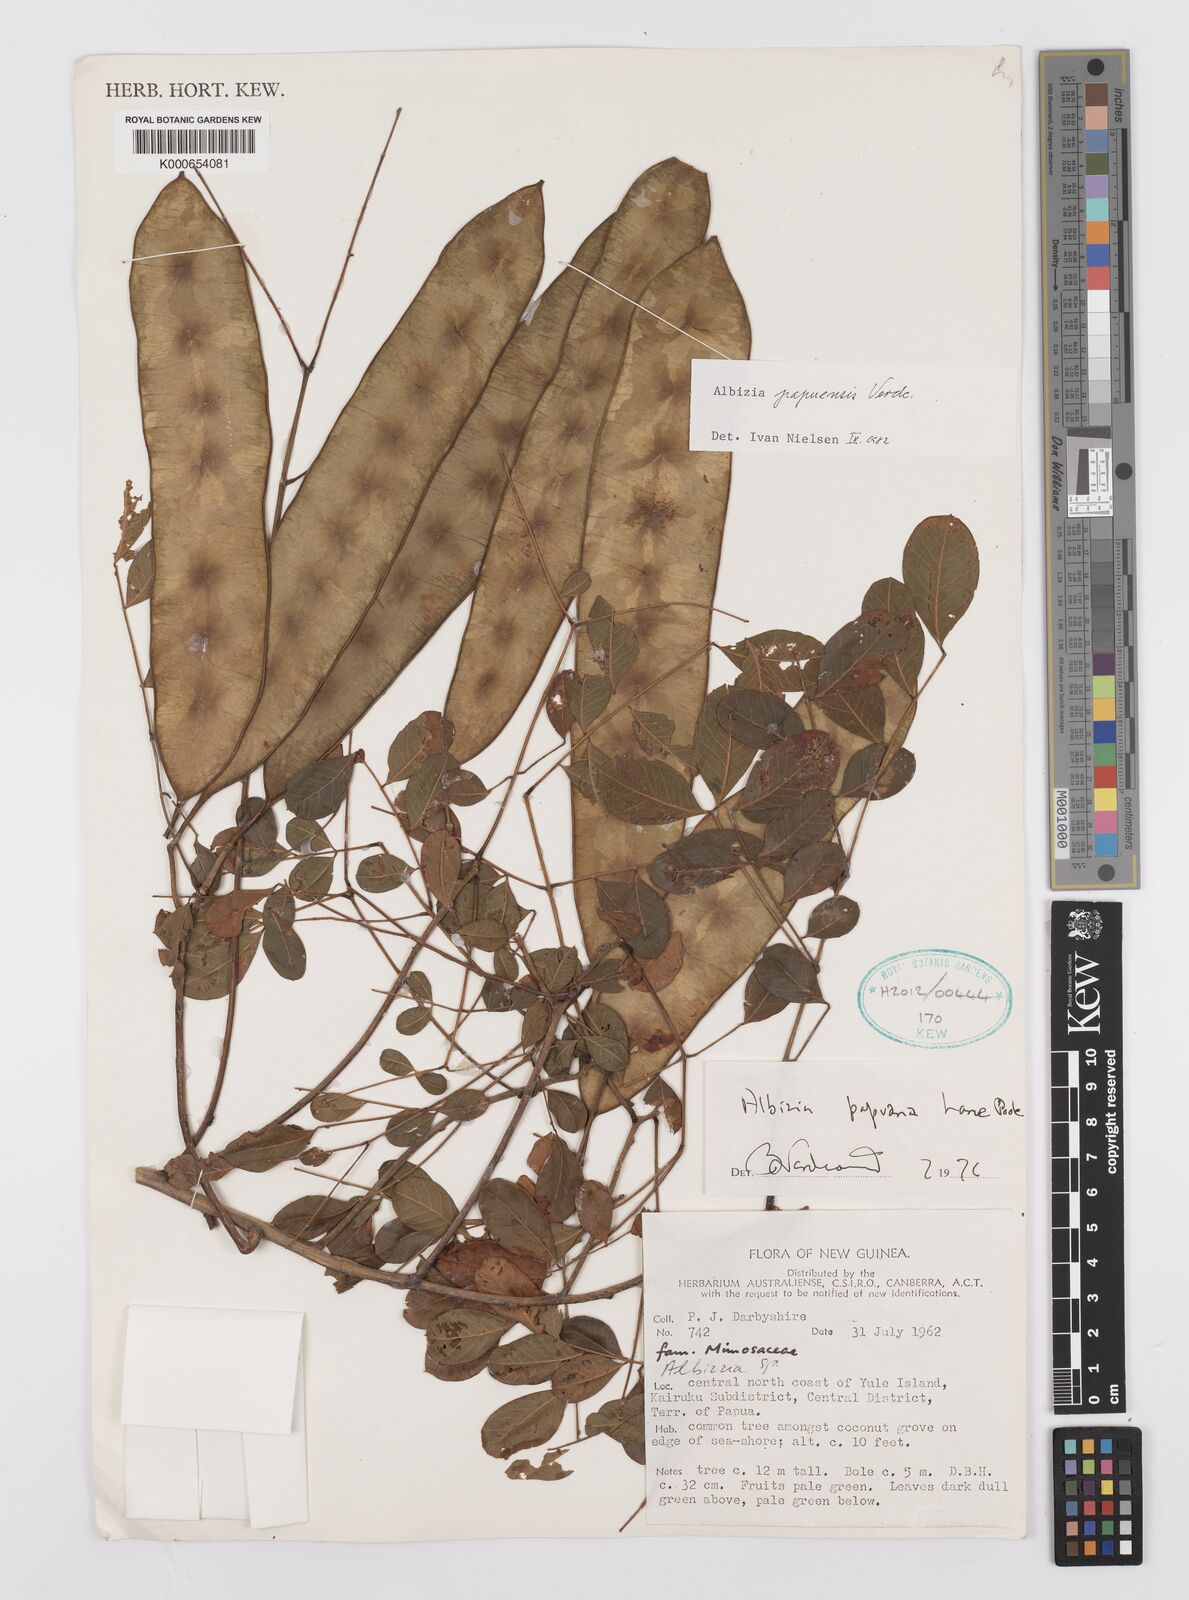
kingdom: Plantae
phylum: Tracheophyta
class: Magnoliopsida
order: Fabales
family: Fabaceae
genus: Albizia
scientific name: Albizia papuensis
